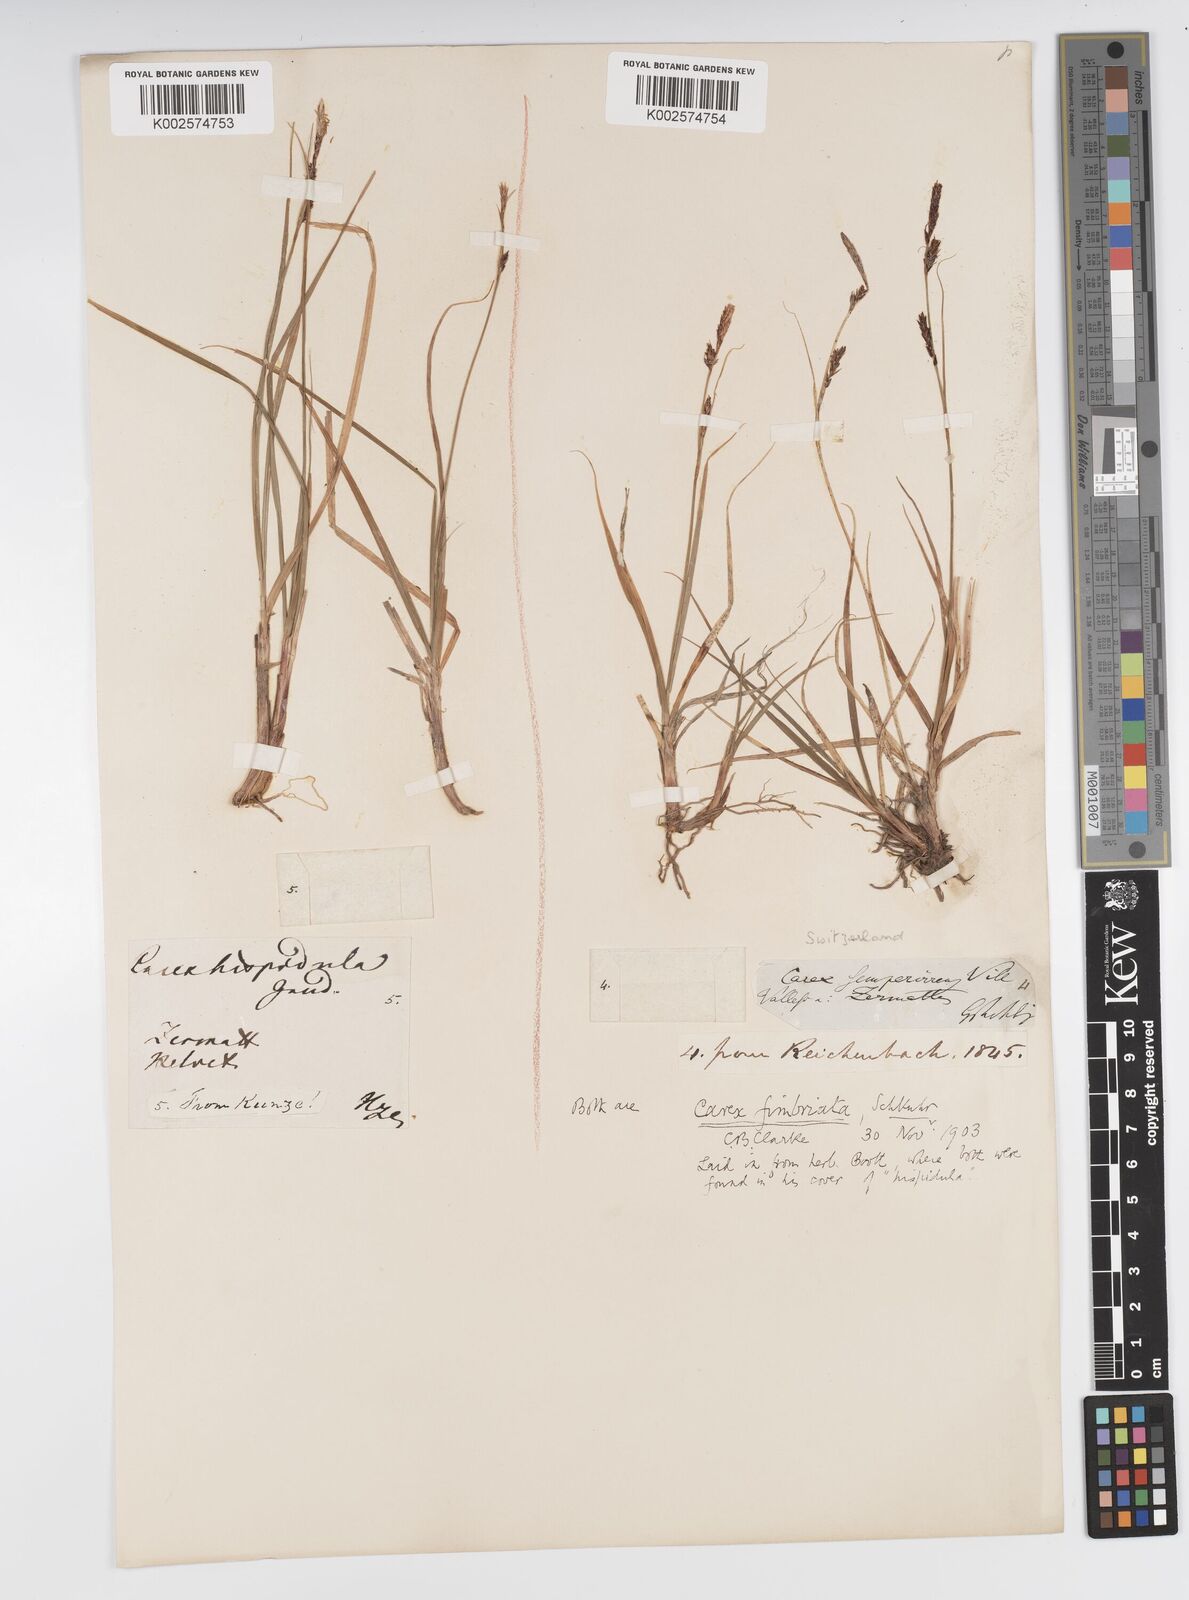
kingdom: Plantae
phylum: Tracheophyta
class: Liliopsida
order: Poales
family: Cyperaceae
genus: Carex
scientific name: Carex fimbriata
